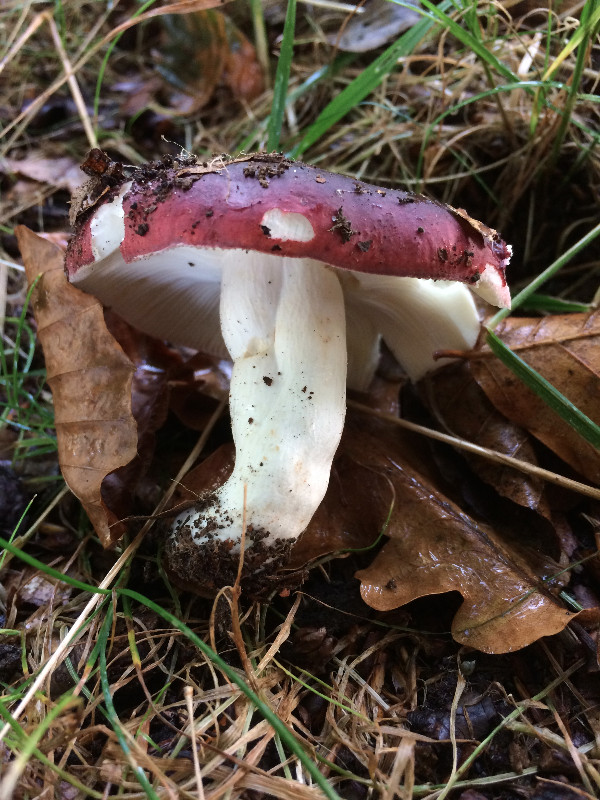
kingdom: Fungi
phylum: Basidiomycota
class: Agaricomycetes
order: Russulales
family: Russulaceae
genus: Russula
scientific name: Russula atropurpurea
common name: purpurbroget skørhat
